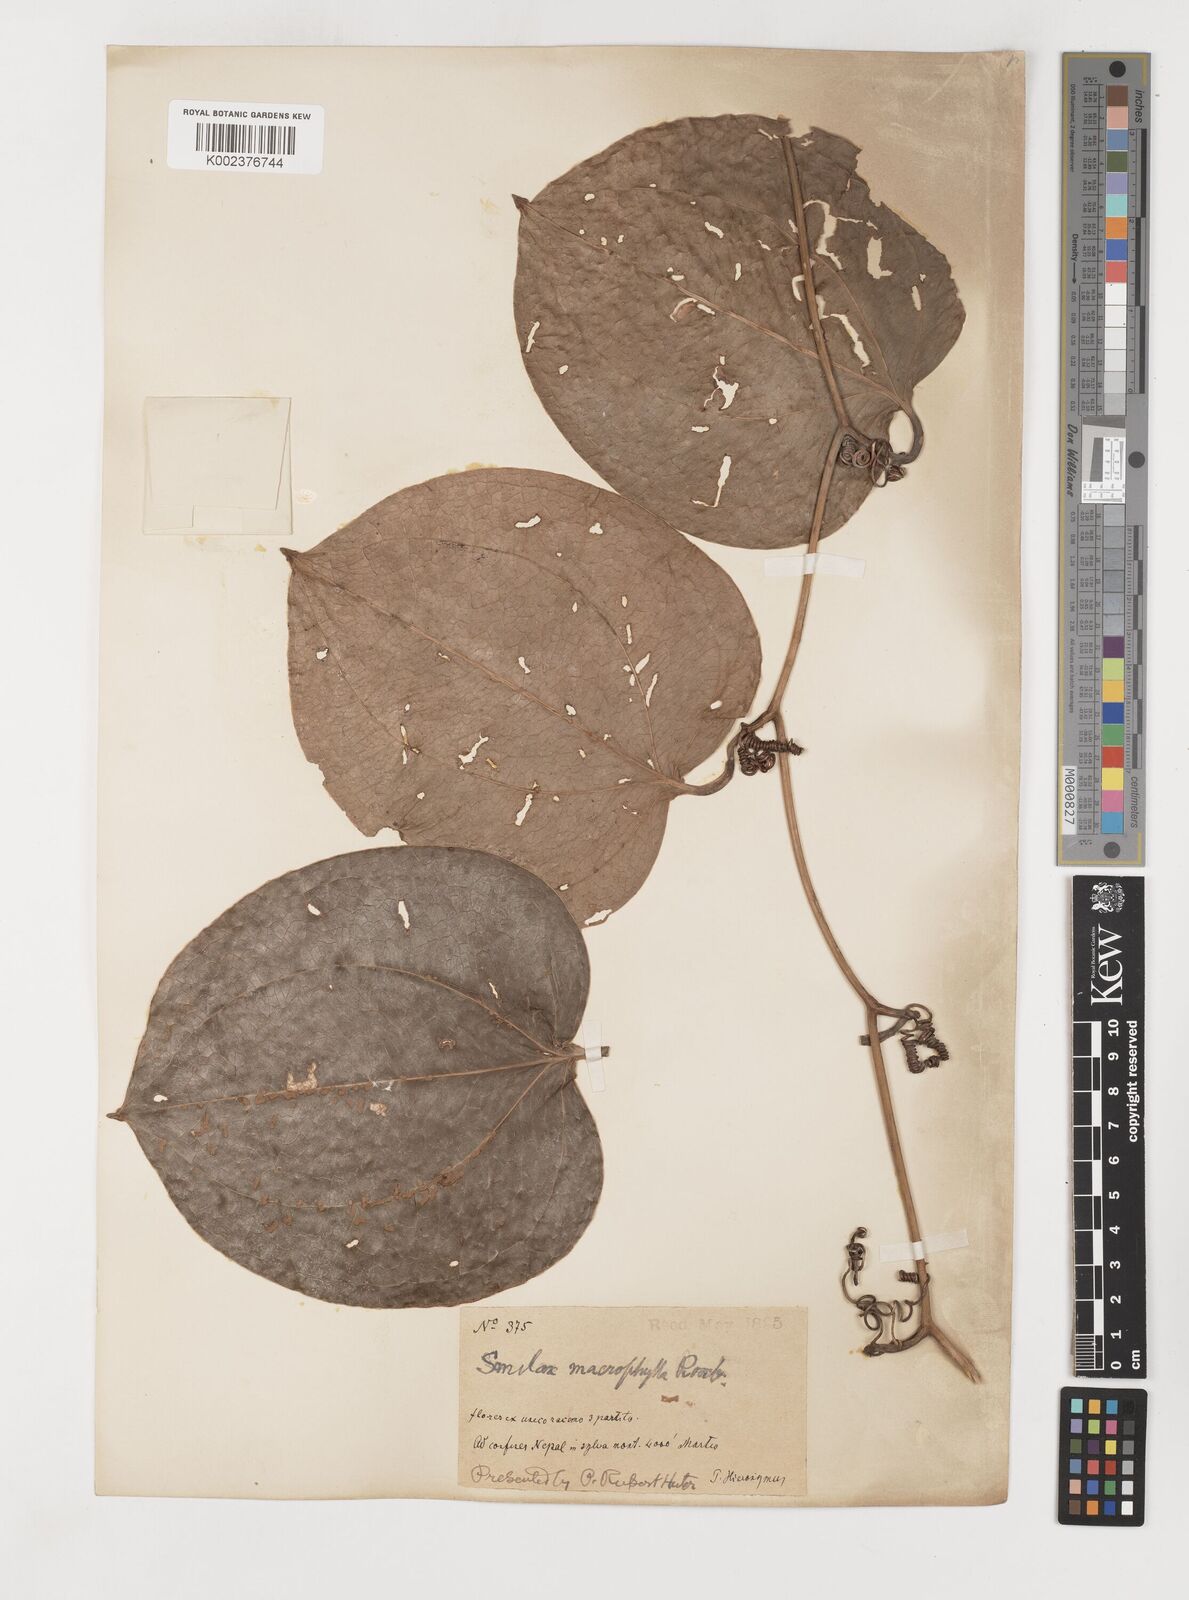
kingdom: Plantae
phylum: Tracheophyta
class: Liliopsida
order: Liliales
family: Smilacaceae
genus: Smilax
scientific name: Smilax ovalifolia
